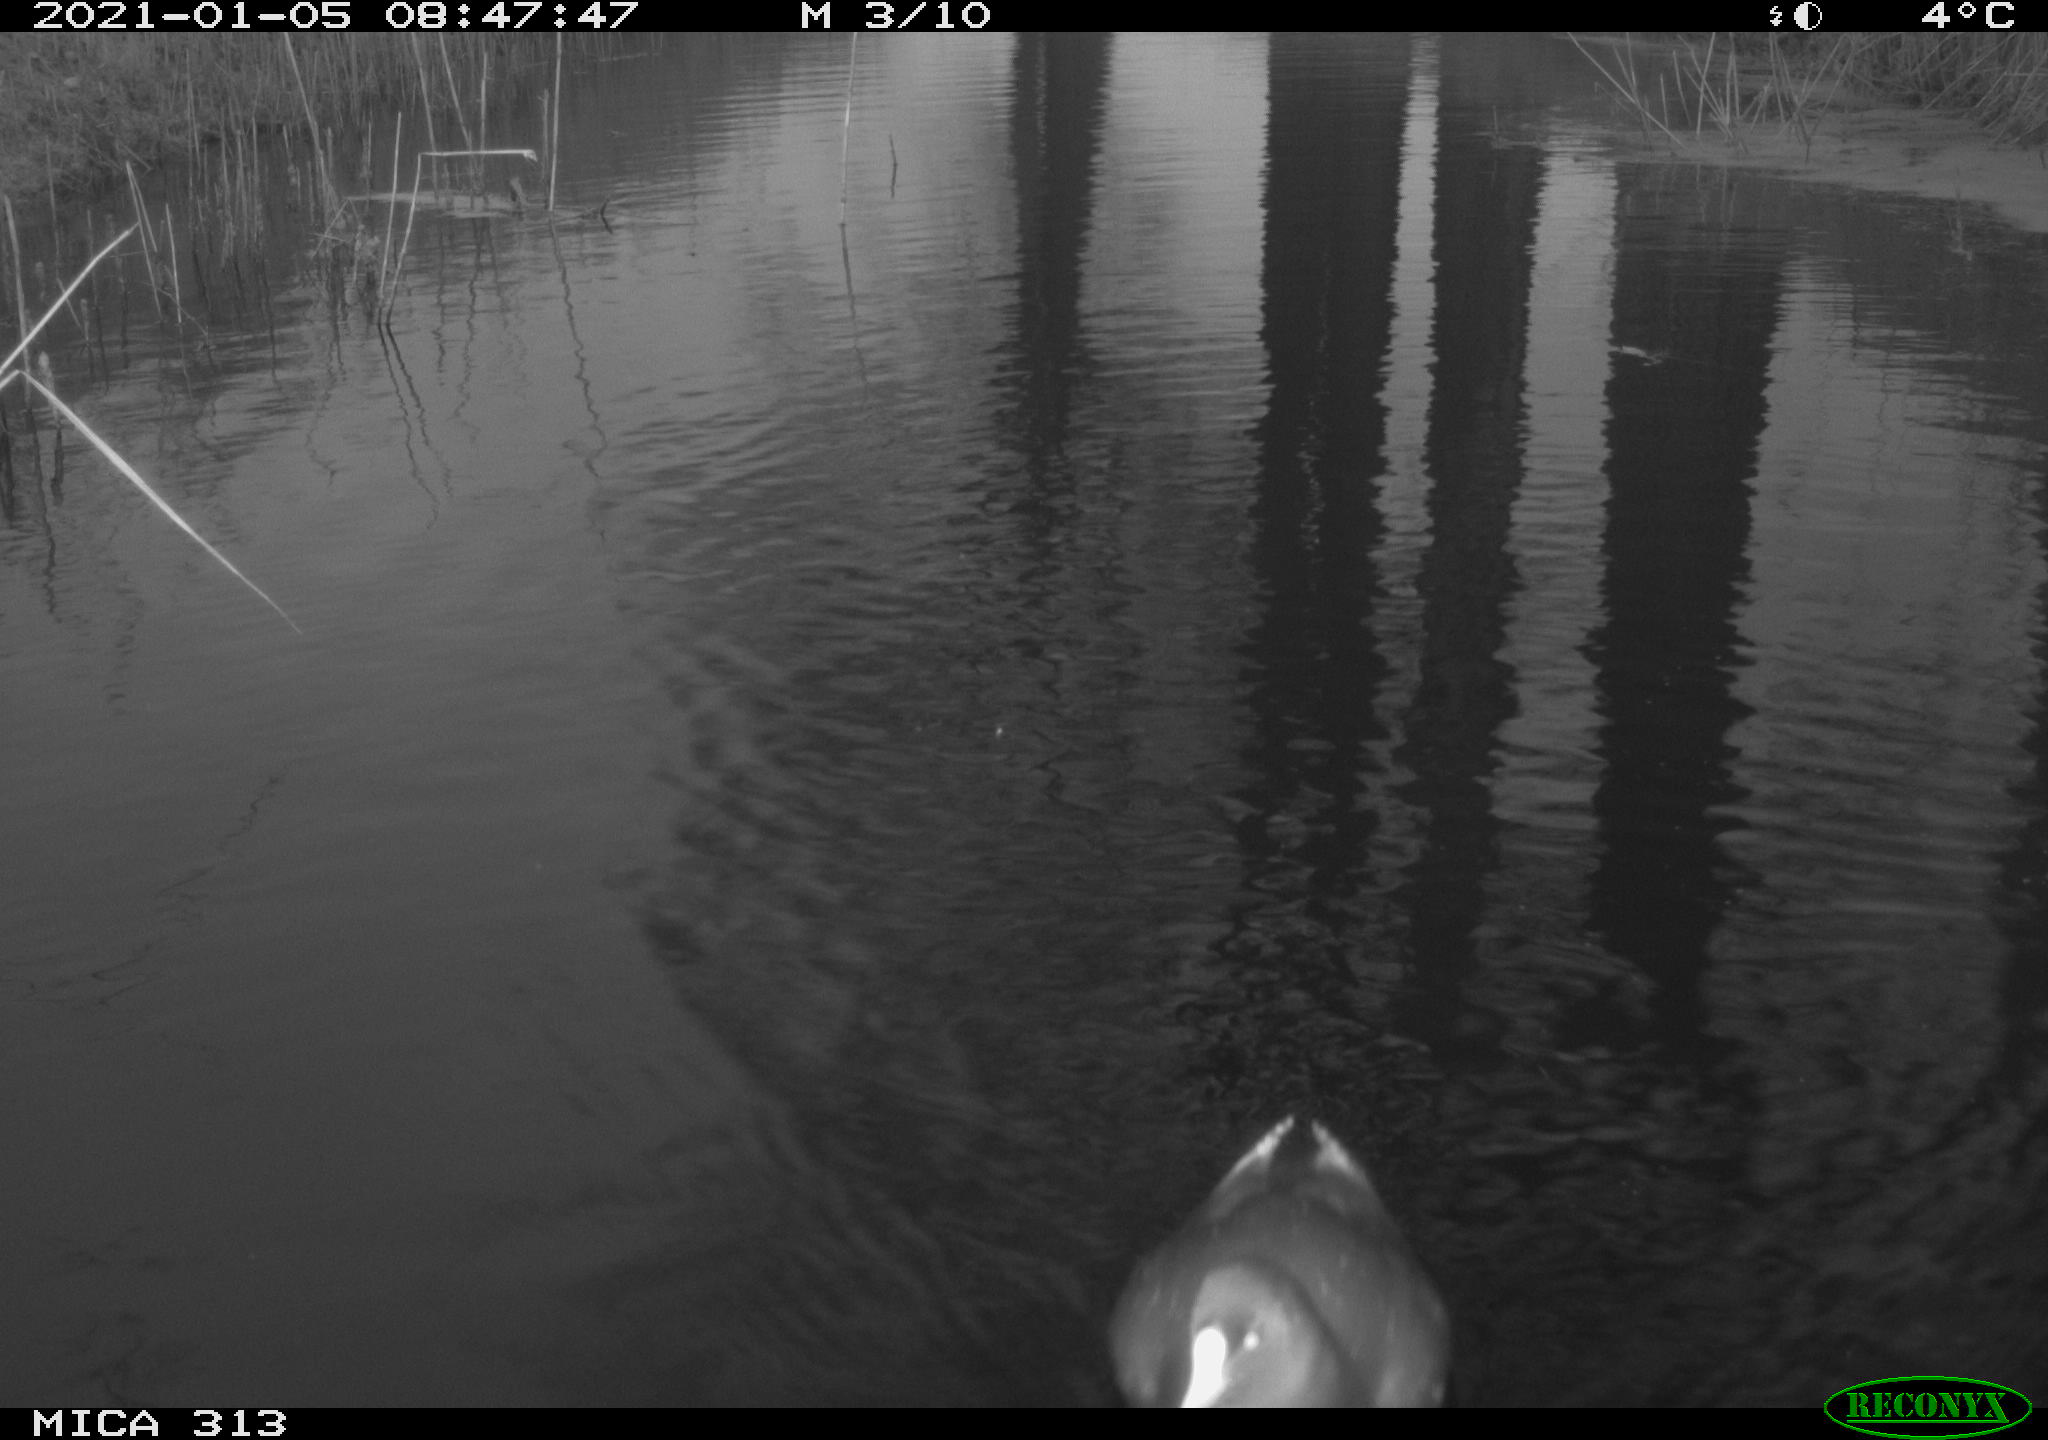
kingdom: Animalia
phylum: Chordata
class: Aves
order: Gruiformes
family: Rallidae
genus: Fulica
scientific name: Fulica atra
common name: Eurasian coot
